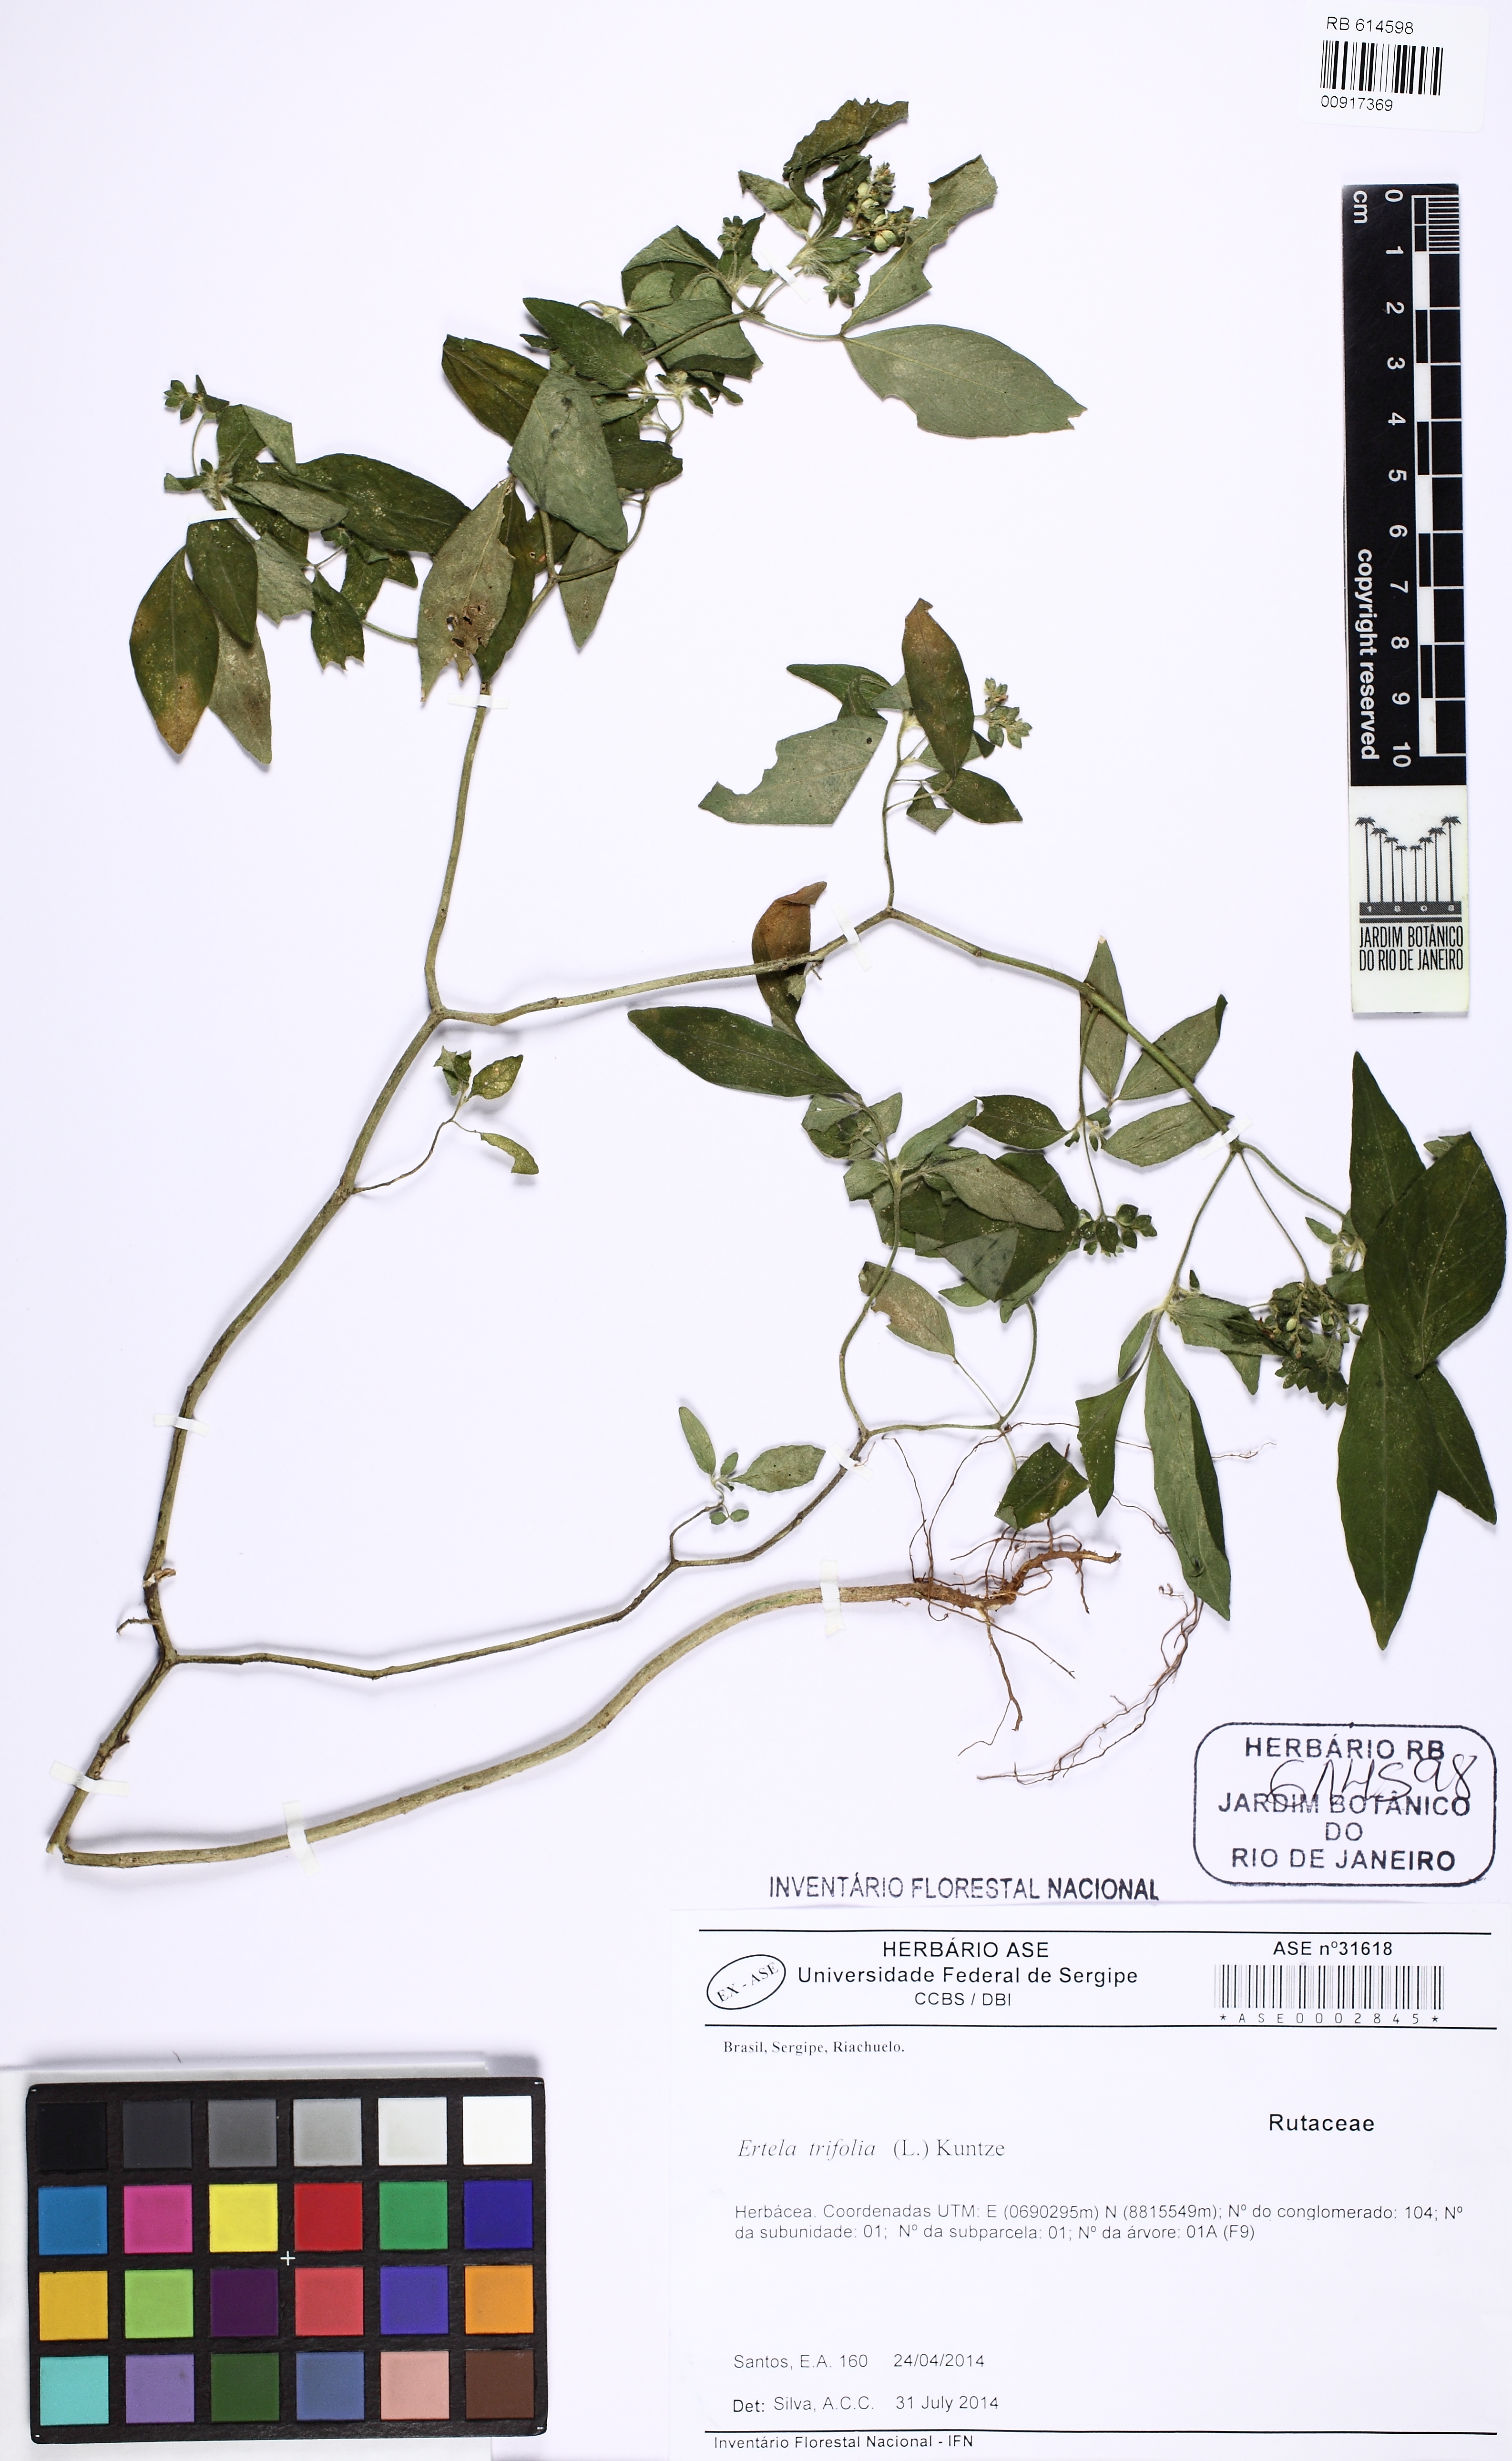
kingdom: Plantae
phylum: Tracheophyta
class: Magnoliopsida
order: Sapindales
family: Rutaceae
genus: Ertela
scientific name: Ertela trifolia
